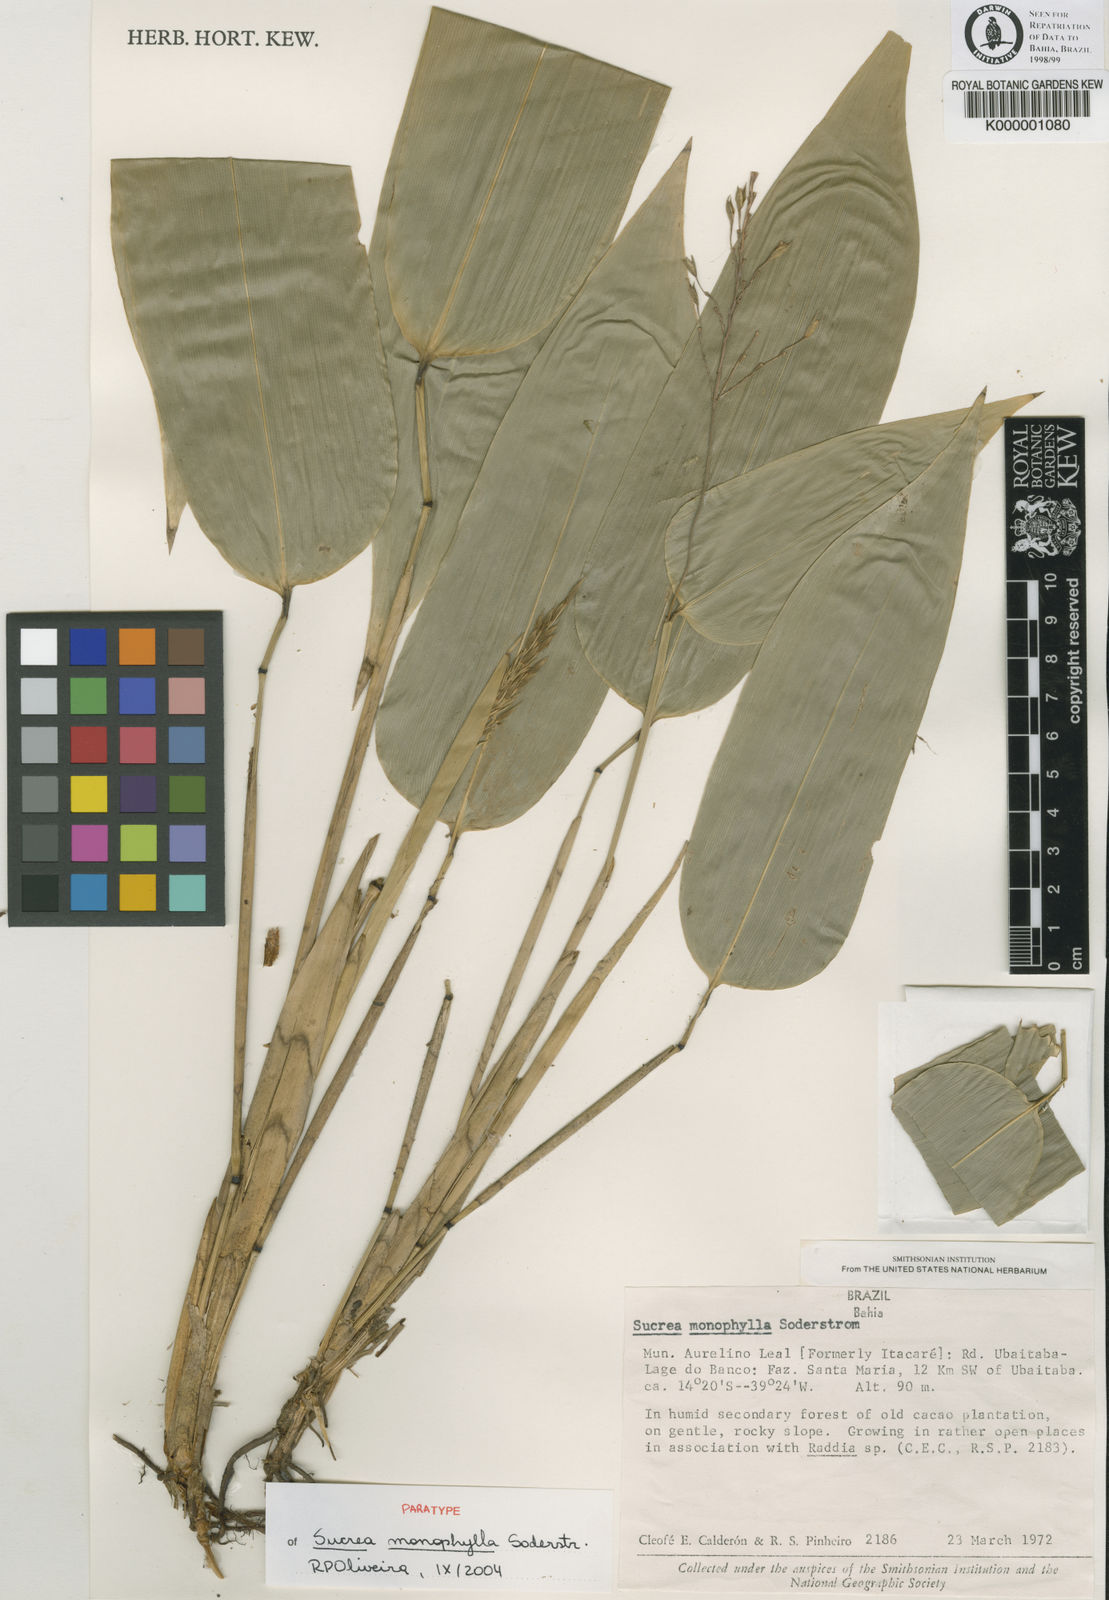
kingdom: Plantae
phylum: Tracheophyta
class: Liliopsida
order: Poales
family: Poaceae
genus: Raddia
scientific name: Raddia monophylla
